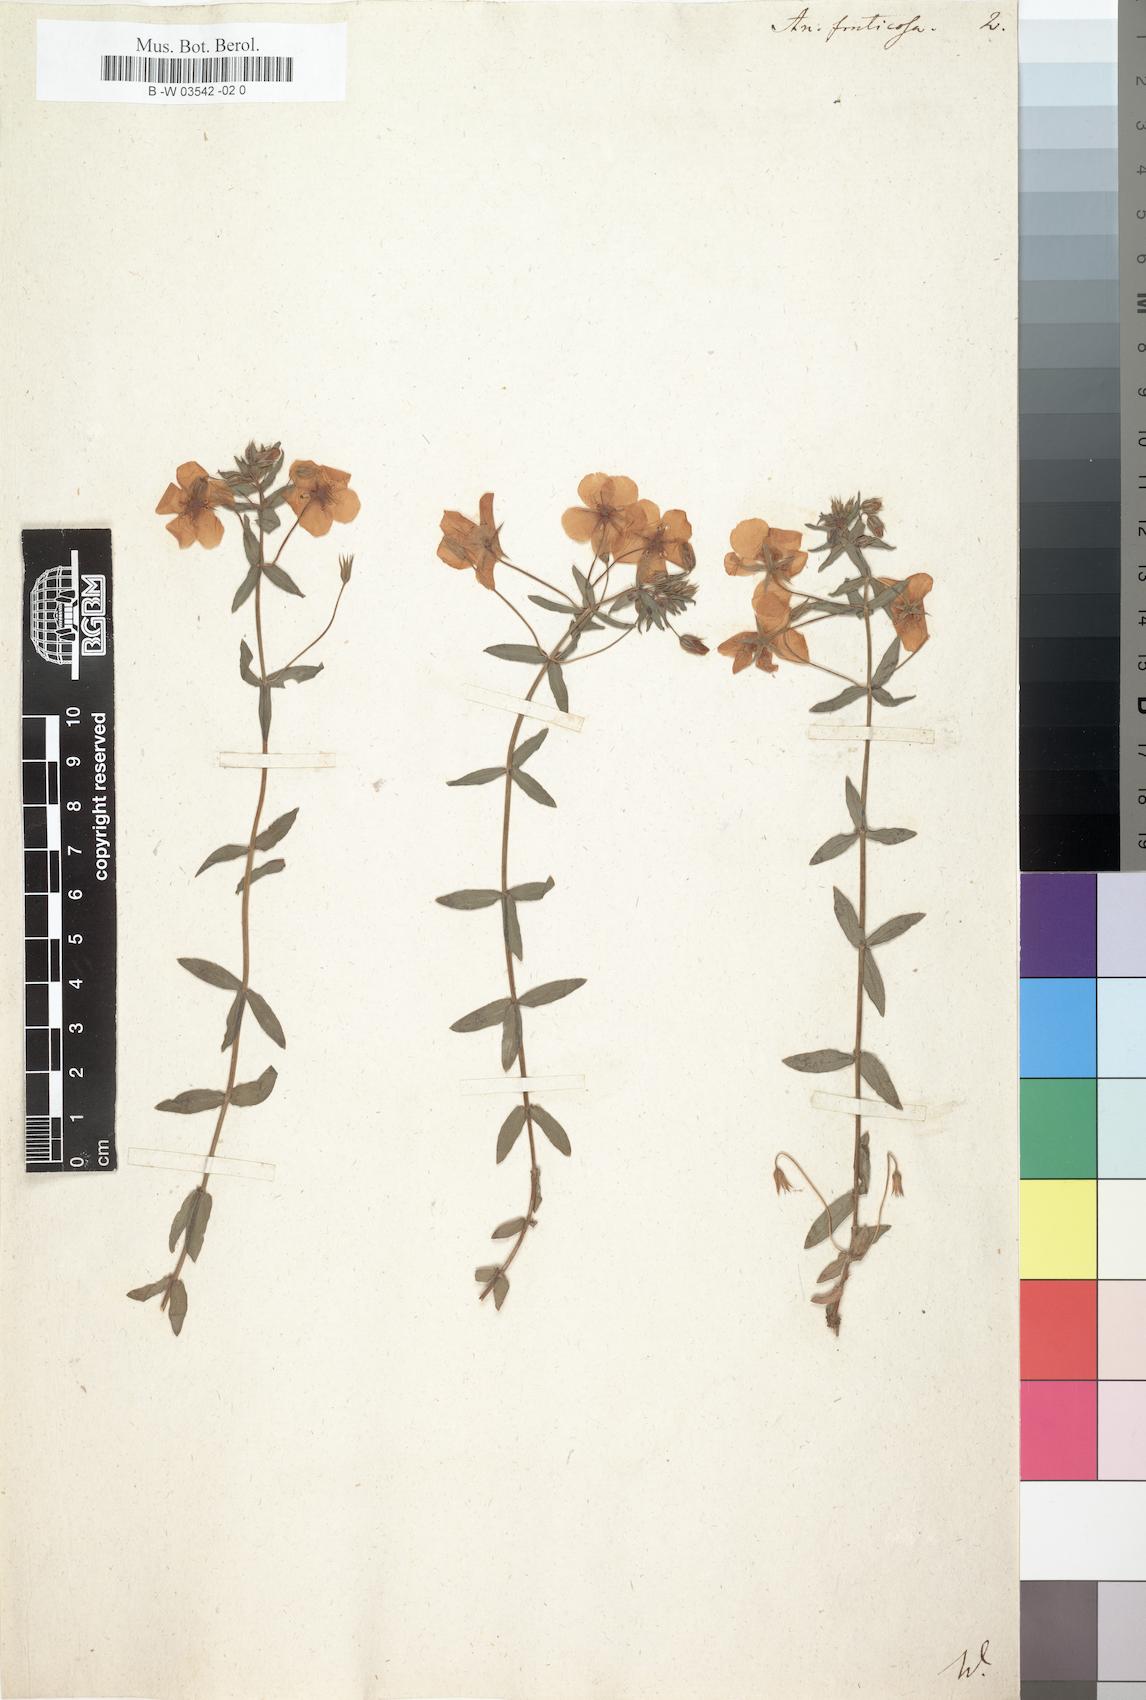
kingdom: Plantae
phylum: Tracheophyta
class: Magnoliopsida
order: Ericales
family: Primulaceae
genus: Lysimachia
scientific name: Lysimachia monelli
